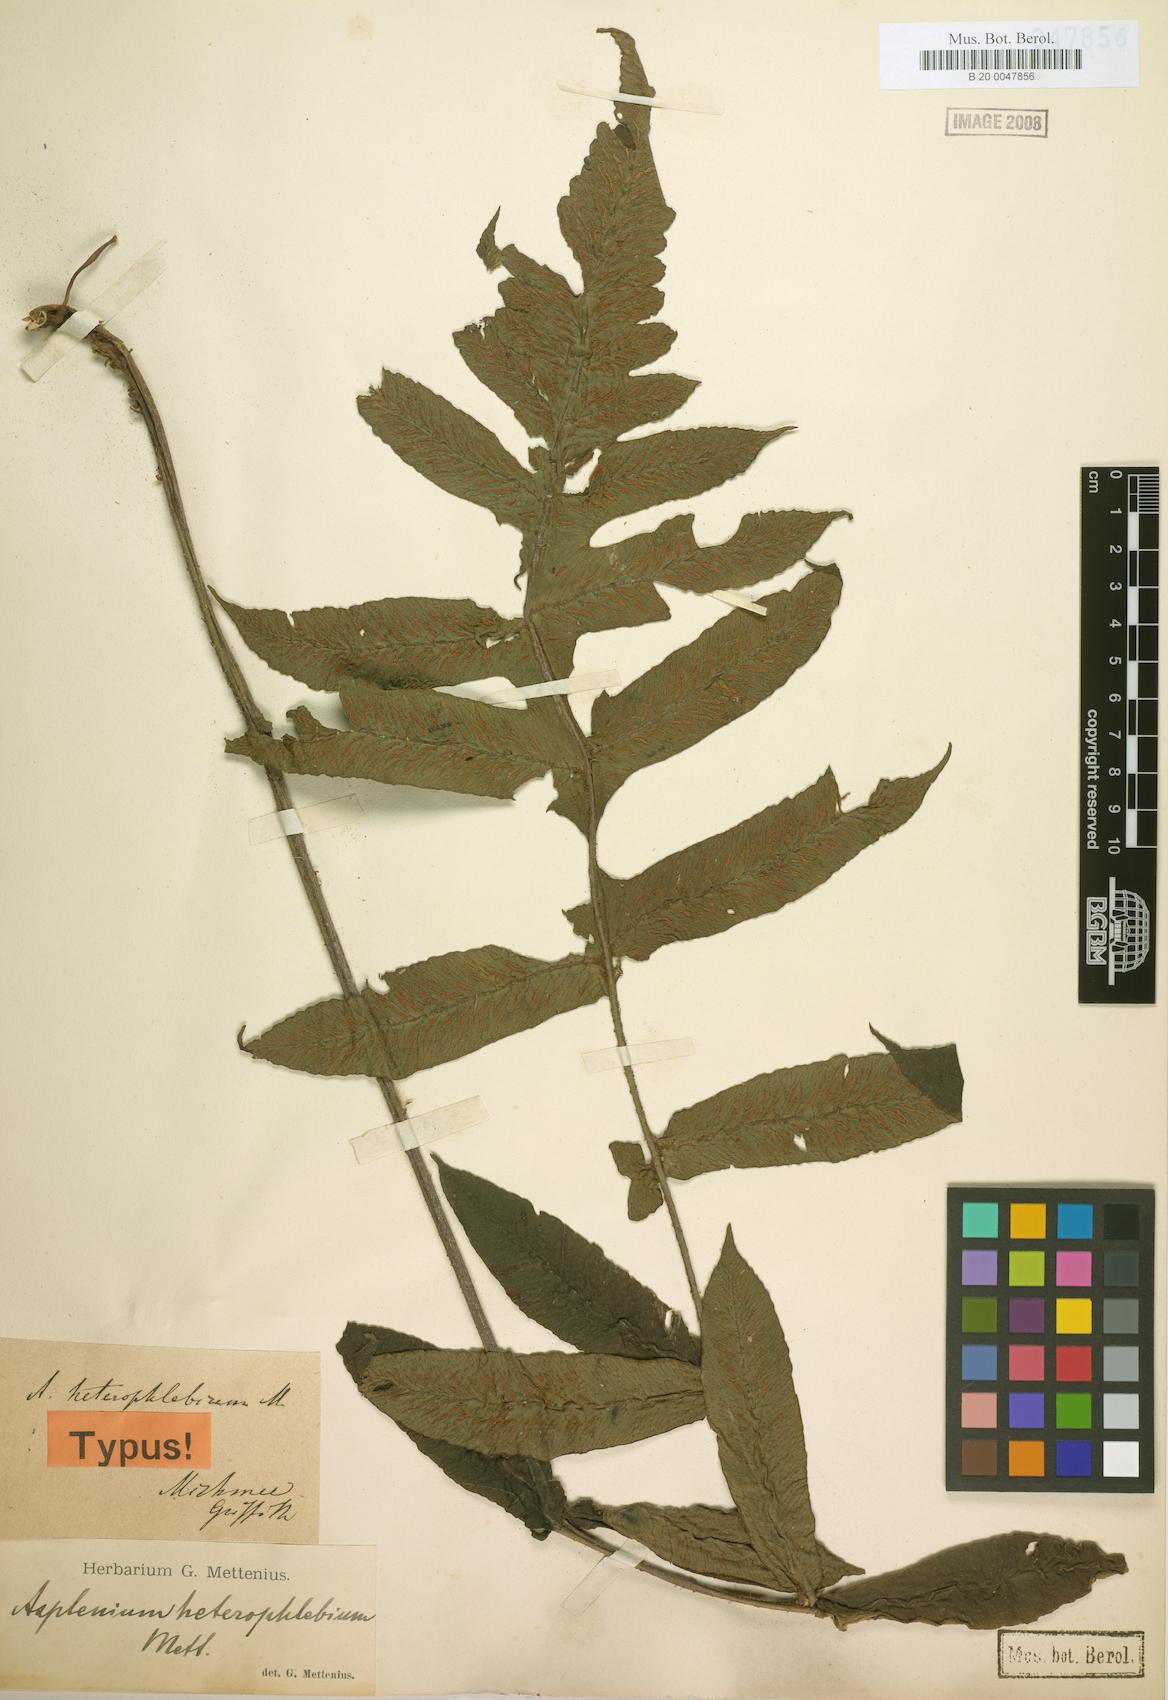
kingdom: Plantae
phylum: Tracheophyta
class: Polypodiopsida
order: Polypodiales
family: Athyriaceae
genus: Deparia
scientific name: Deparia heterophlebia
